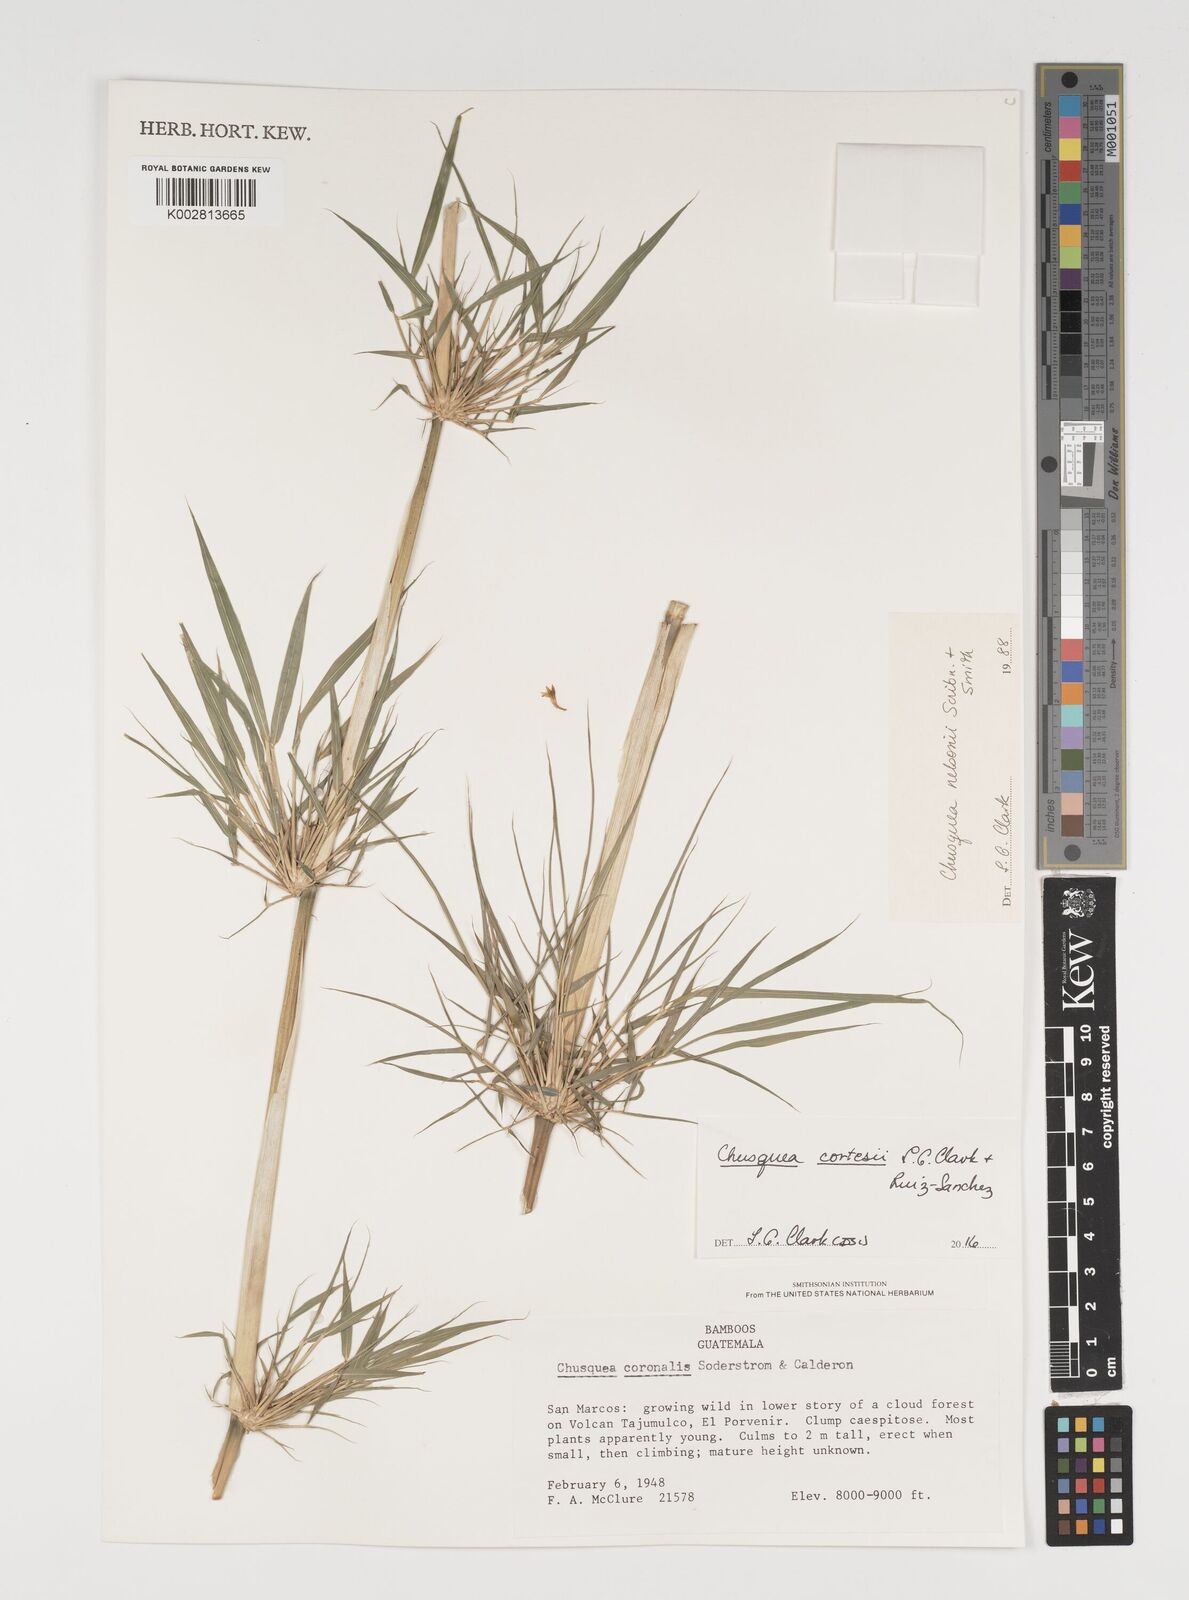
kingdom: Plantae
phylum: Tracheophyta
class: Liliopsida
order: Poales
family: Poaceae
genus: Chusquea
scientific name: Chusquea cortesii
